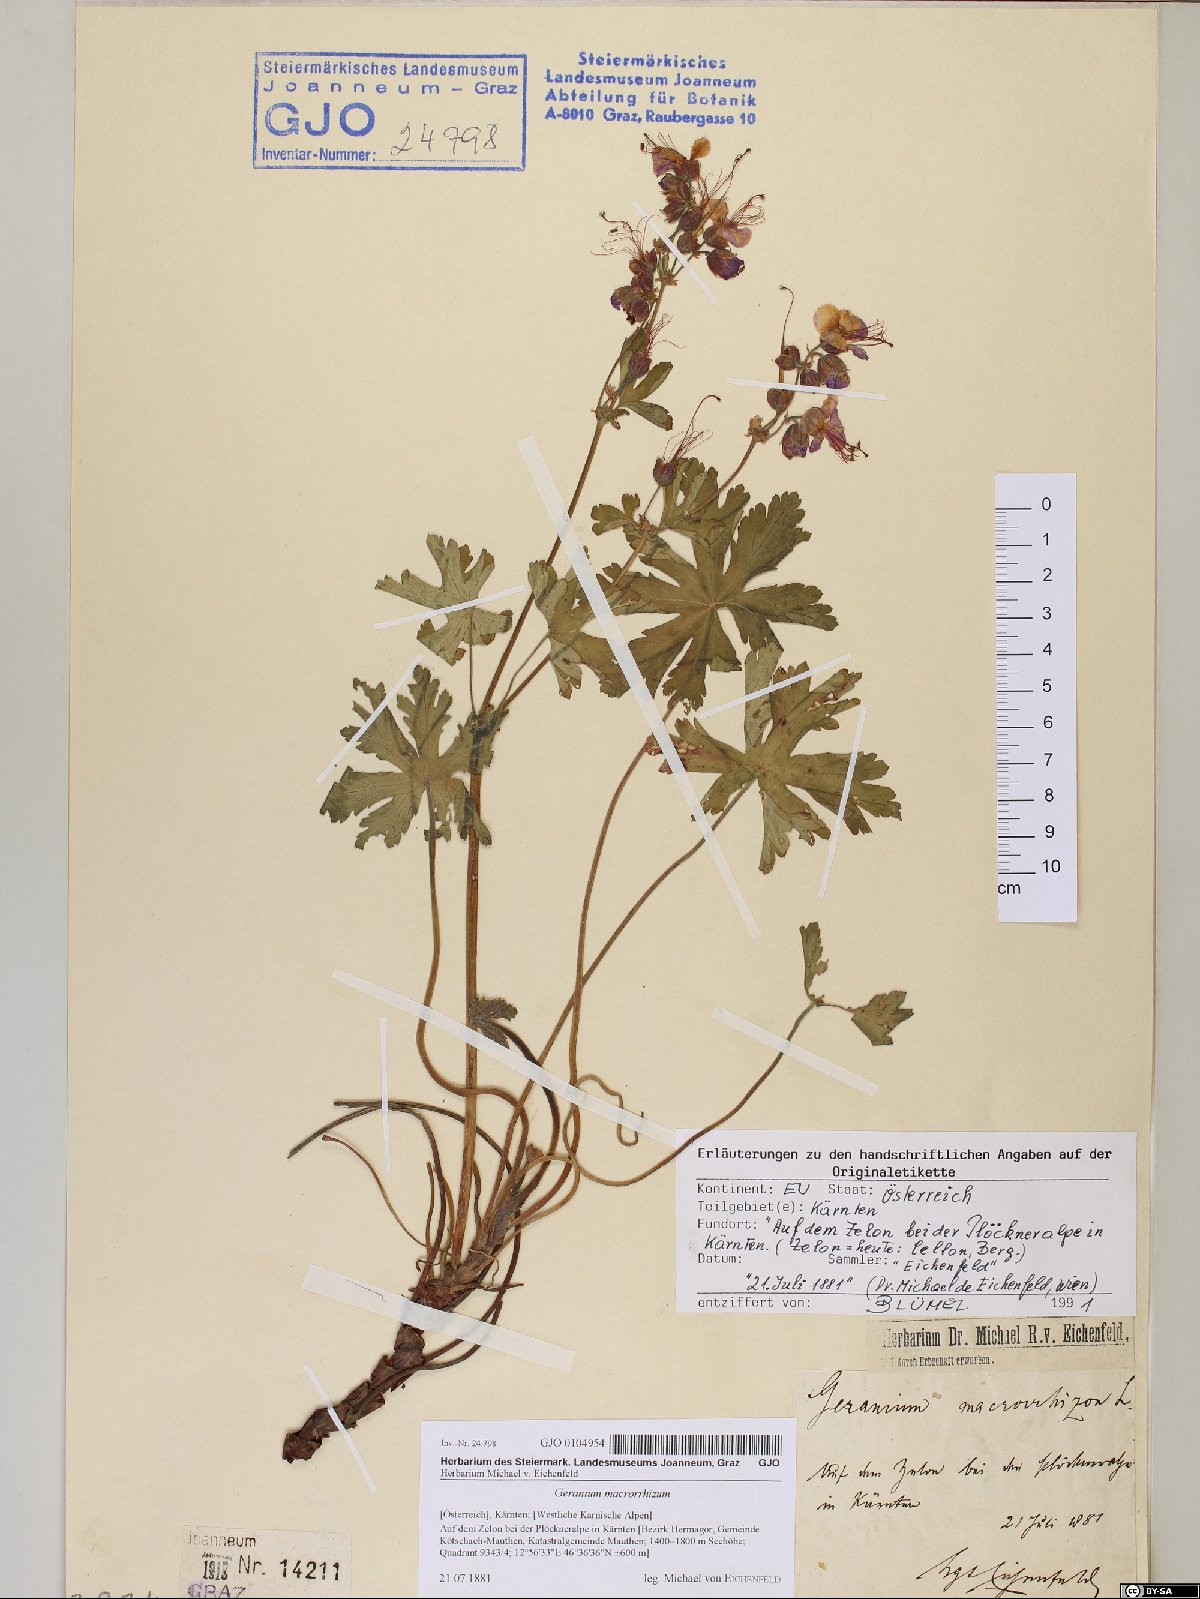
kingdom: Plantae
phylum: Tracheophyta
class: Magnoliopsida
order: Geraniales
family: Geraniaceae
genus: Geranium
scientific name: Geranium macrorrhizum
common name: Rock crane's-bill
